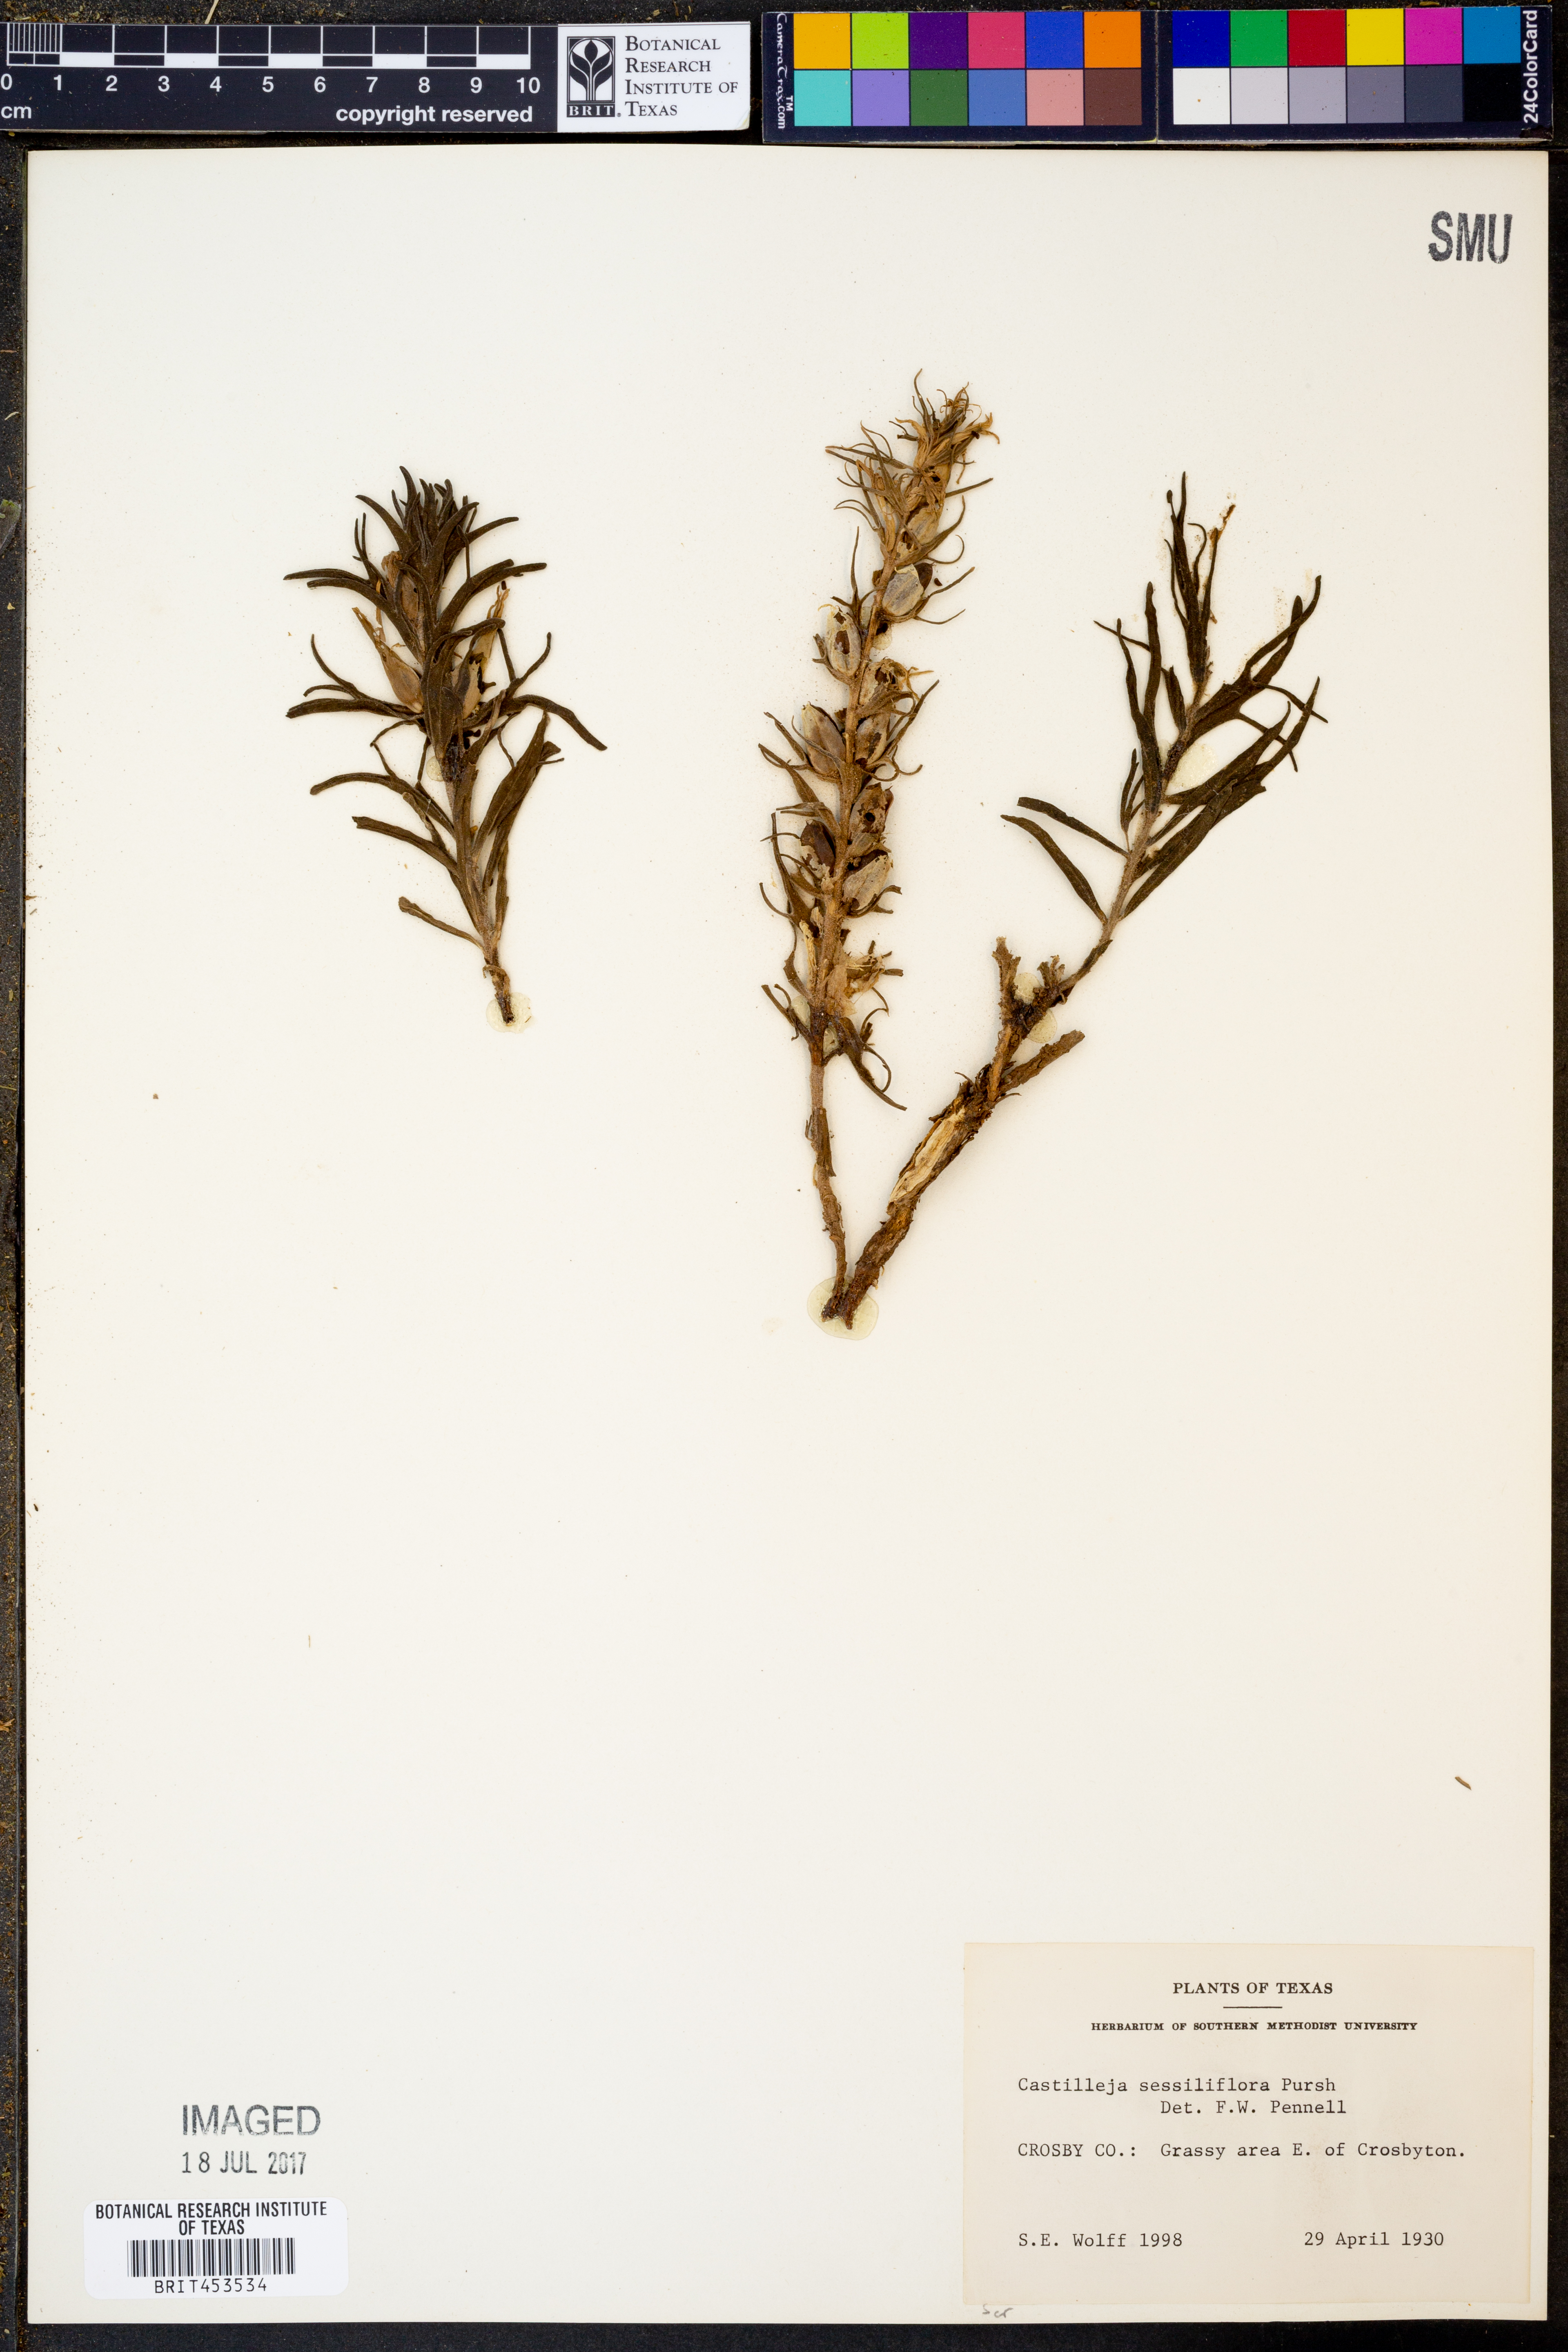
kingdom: Plantae
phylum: Tracheophyta
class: Magnoliopsida
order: Lamiales
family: Orobanchaceae
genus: Castilleja
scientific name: Castilleja sessiliflora
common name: Downy paintbrush
